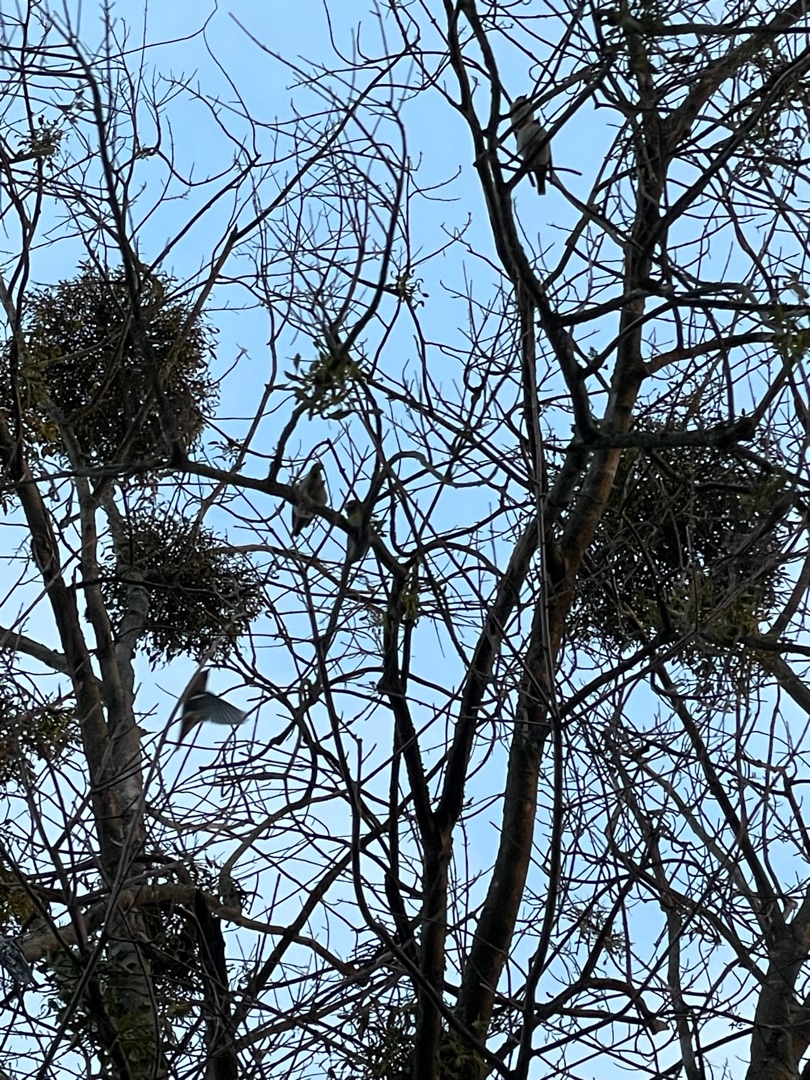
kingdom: Plantae
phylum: Tracheophyta
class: Magnoliopsida
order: Santalales
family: Viscaceae
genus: Viscum
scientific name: Viscum album
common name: Mistelten
